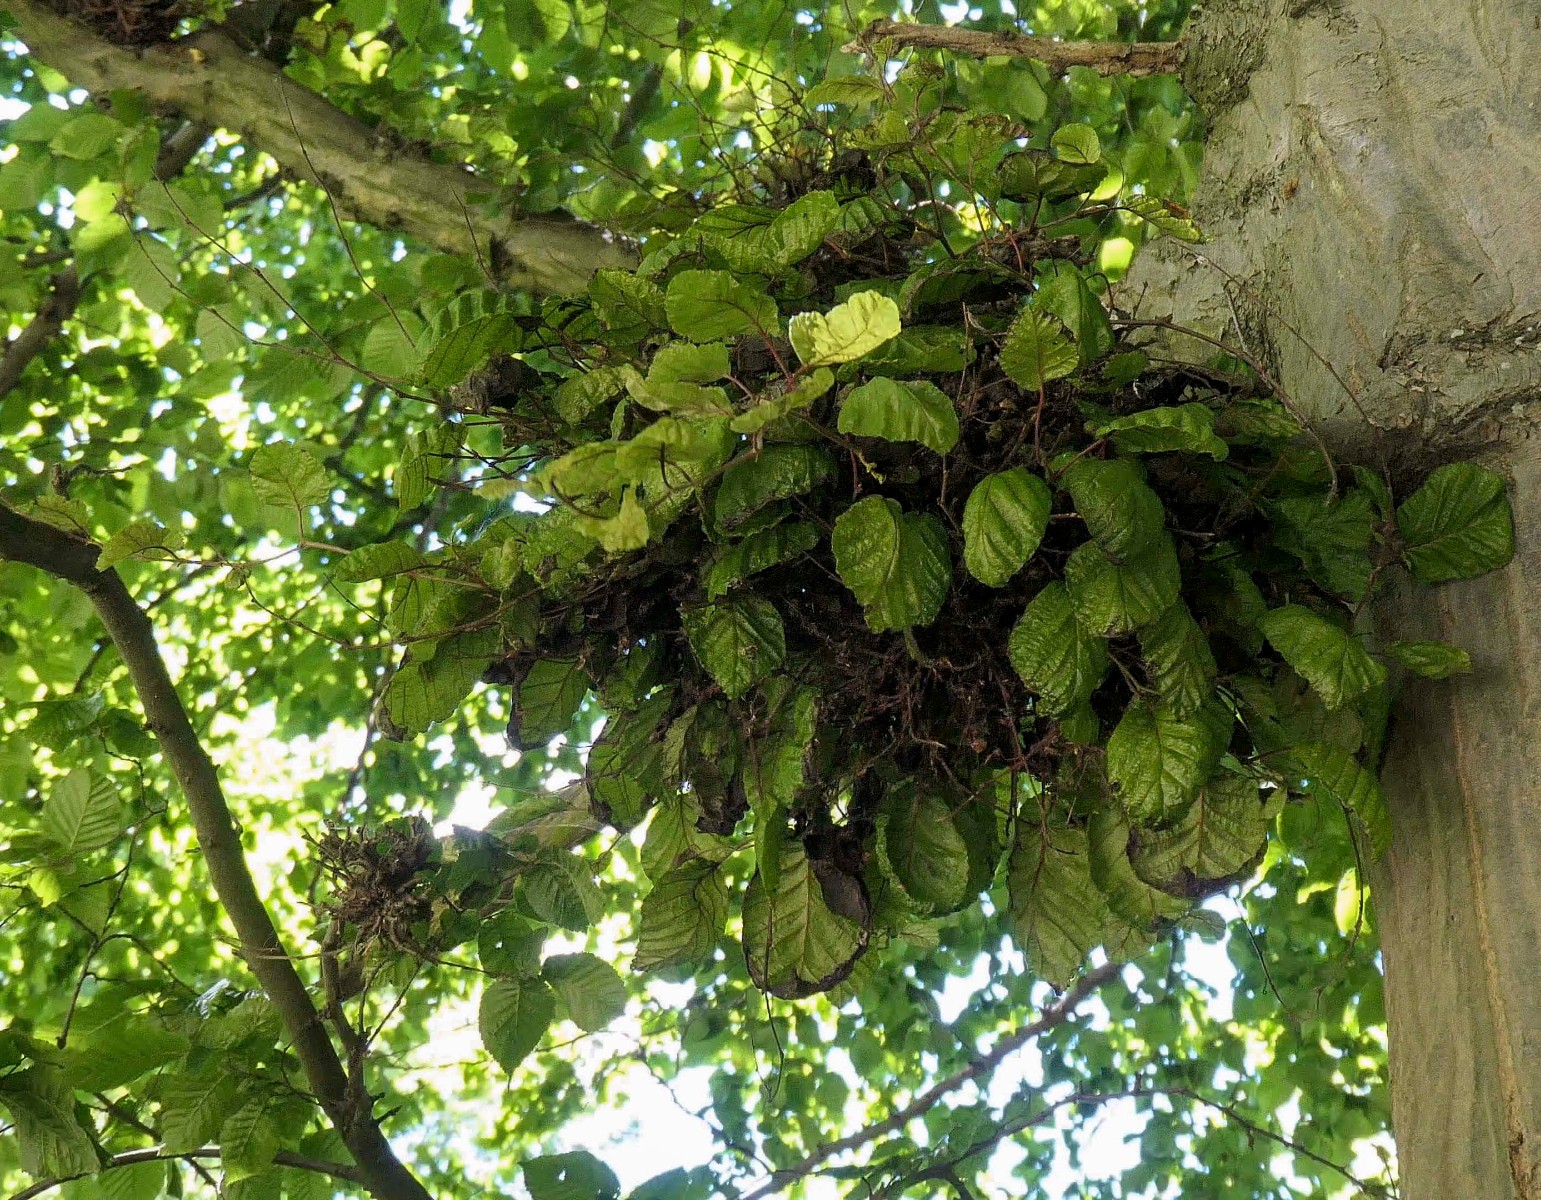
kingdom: Fungi
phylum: Ascomycota
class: Taphrinomycetes
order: Taphrinales
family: Taphrinaceae
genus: Taphrina
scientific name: Taphrina carpini
